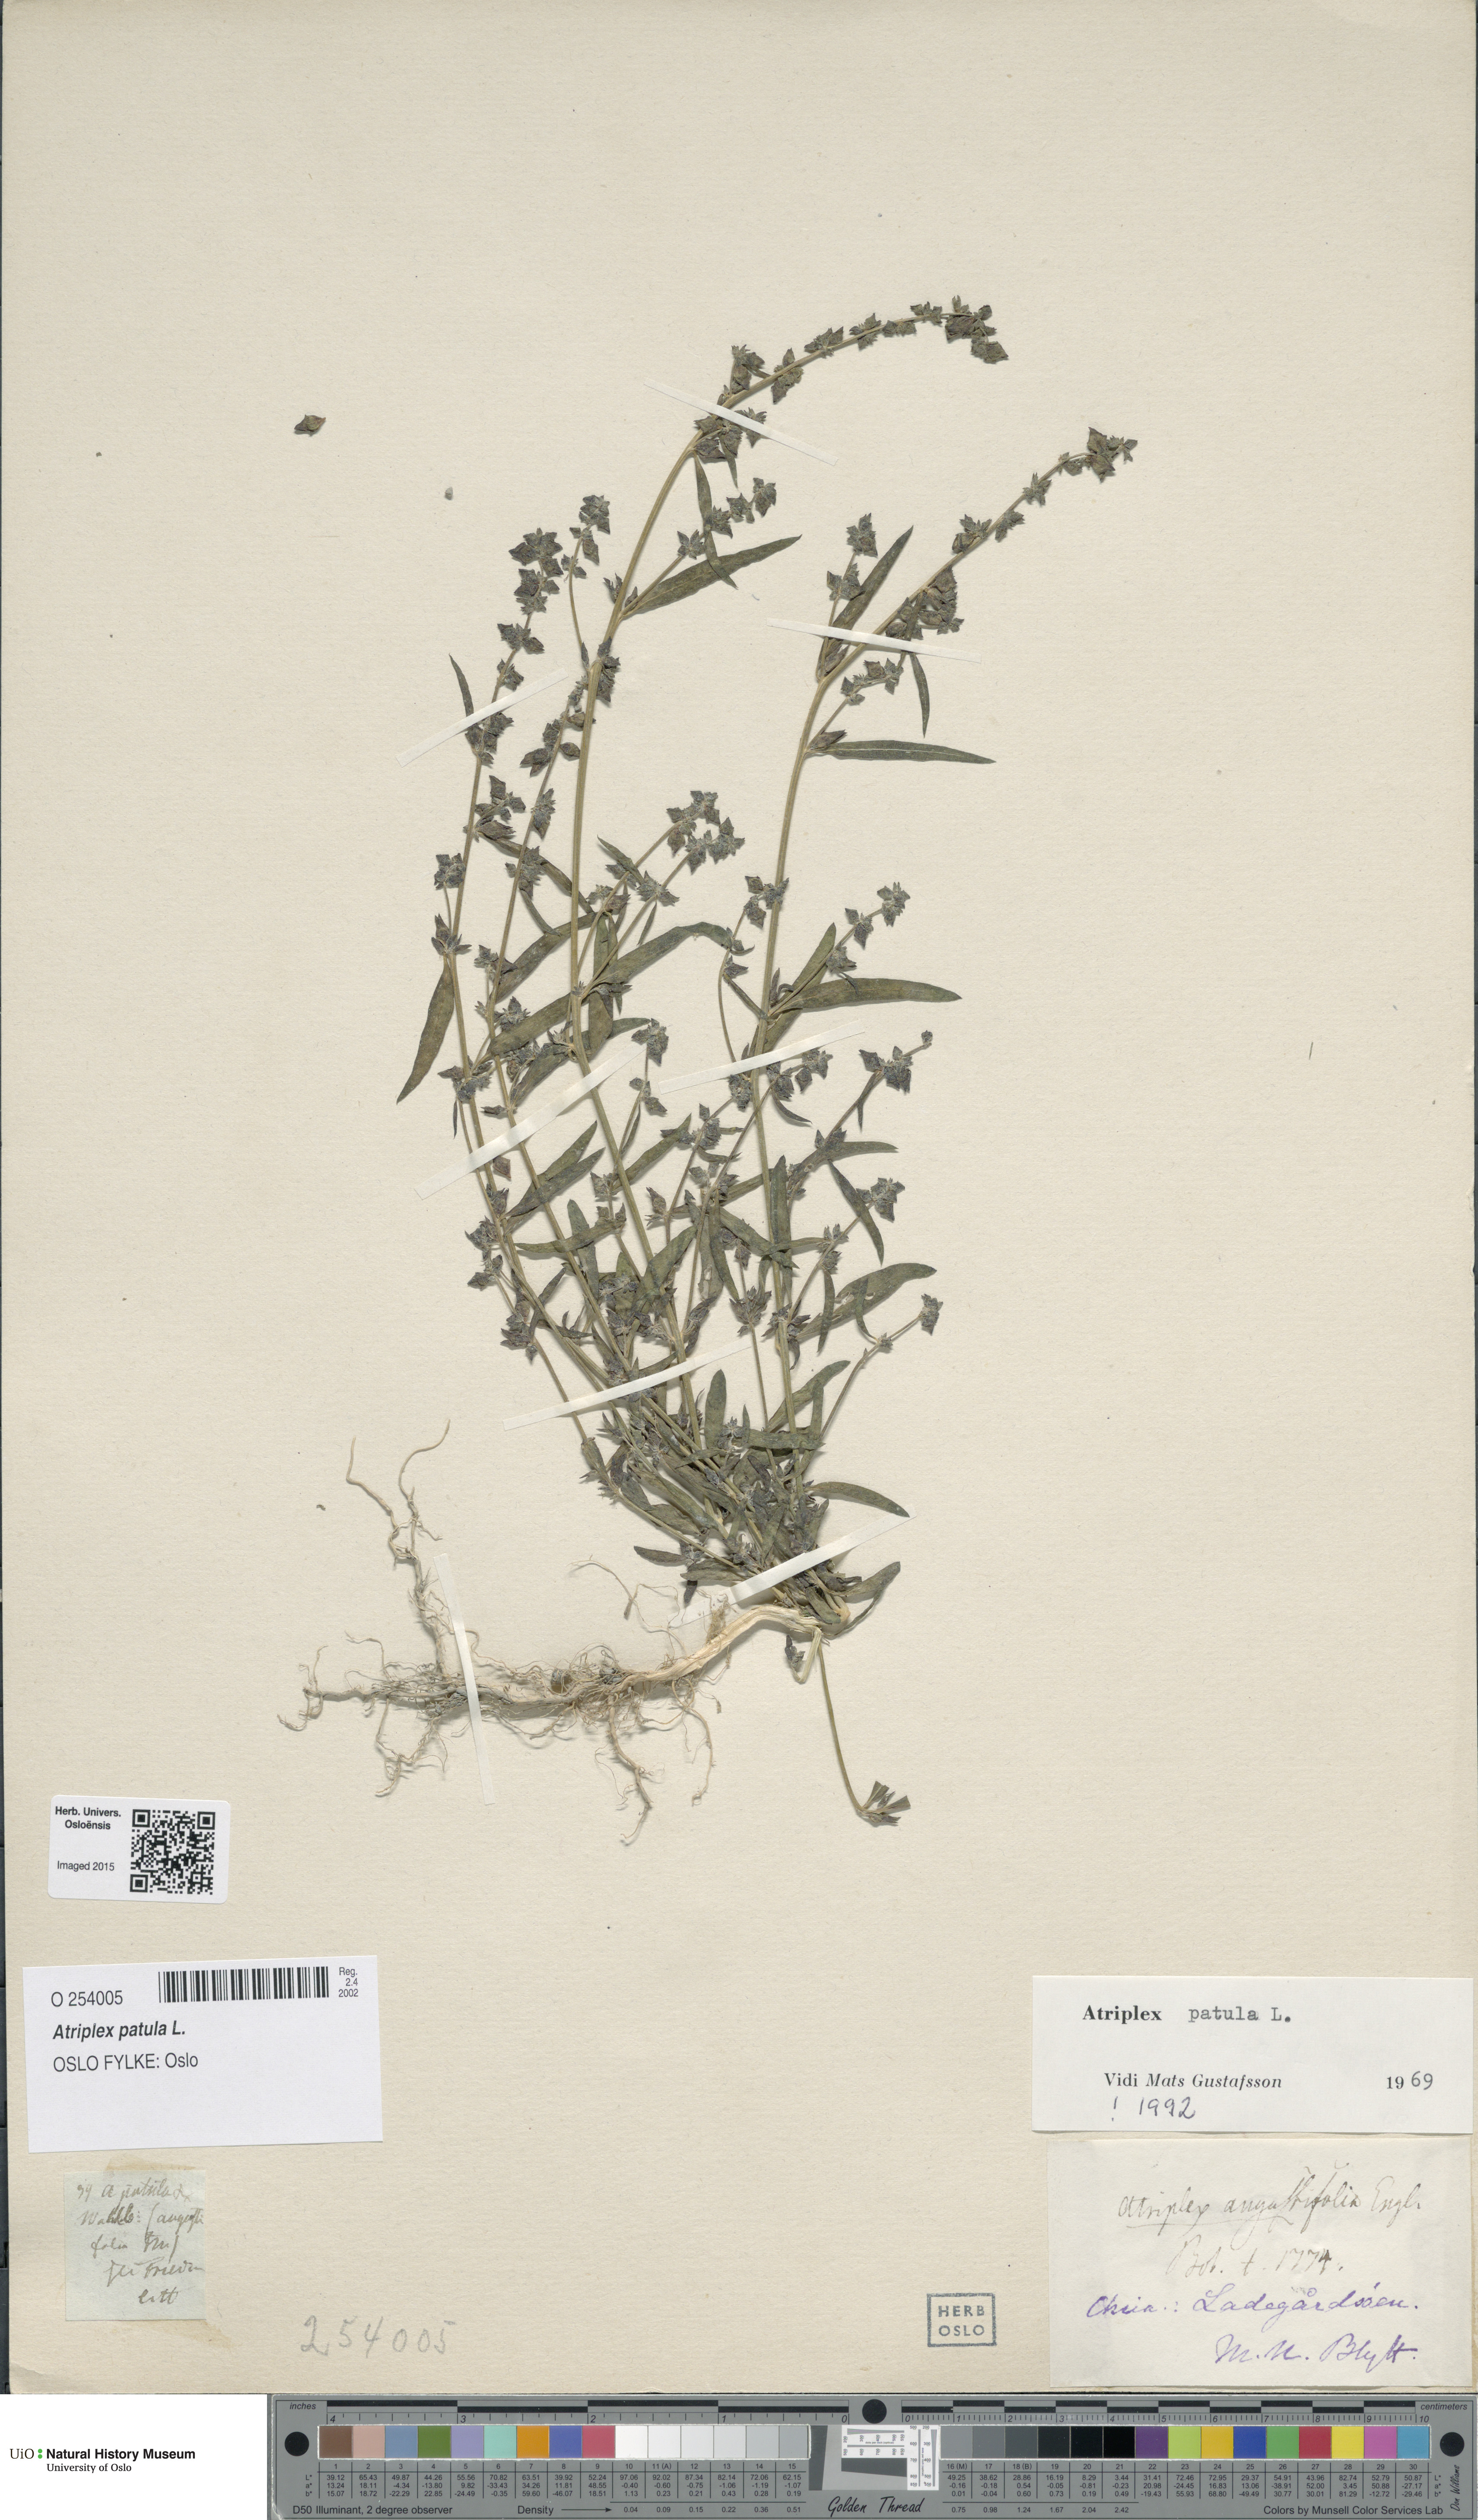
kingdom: Plantae
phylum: Tracheophyta
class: Magnoliopsida
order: Caryophyllales
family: Amaranthaceae
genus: Atriplex
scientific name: Atriplex patula
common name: Common orache
